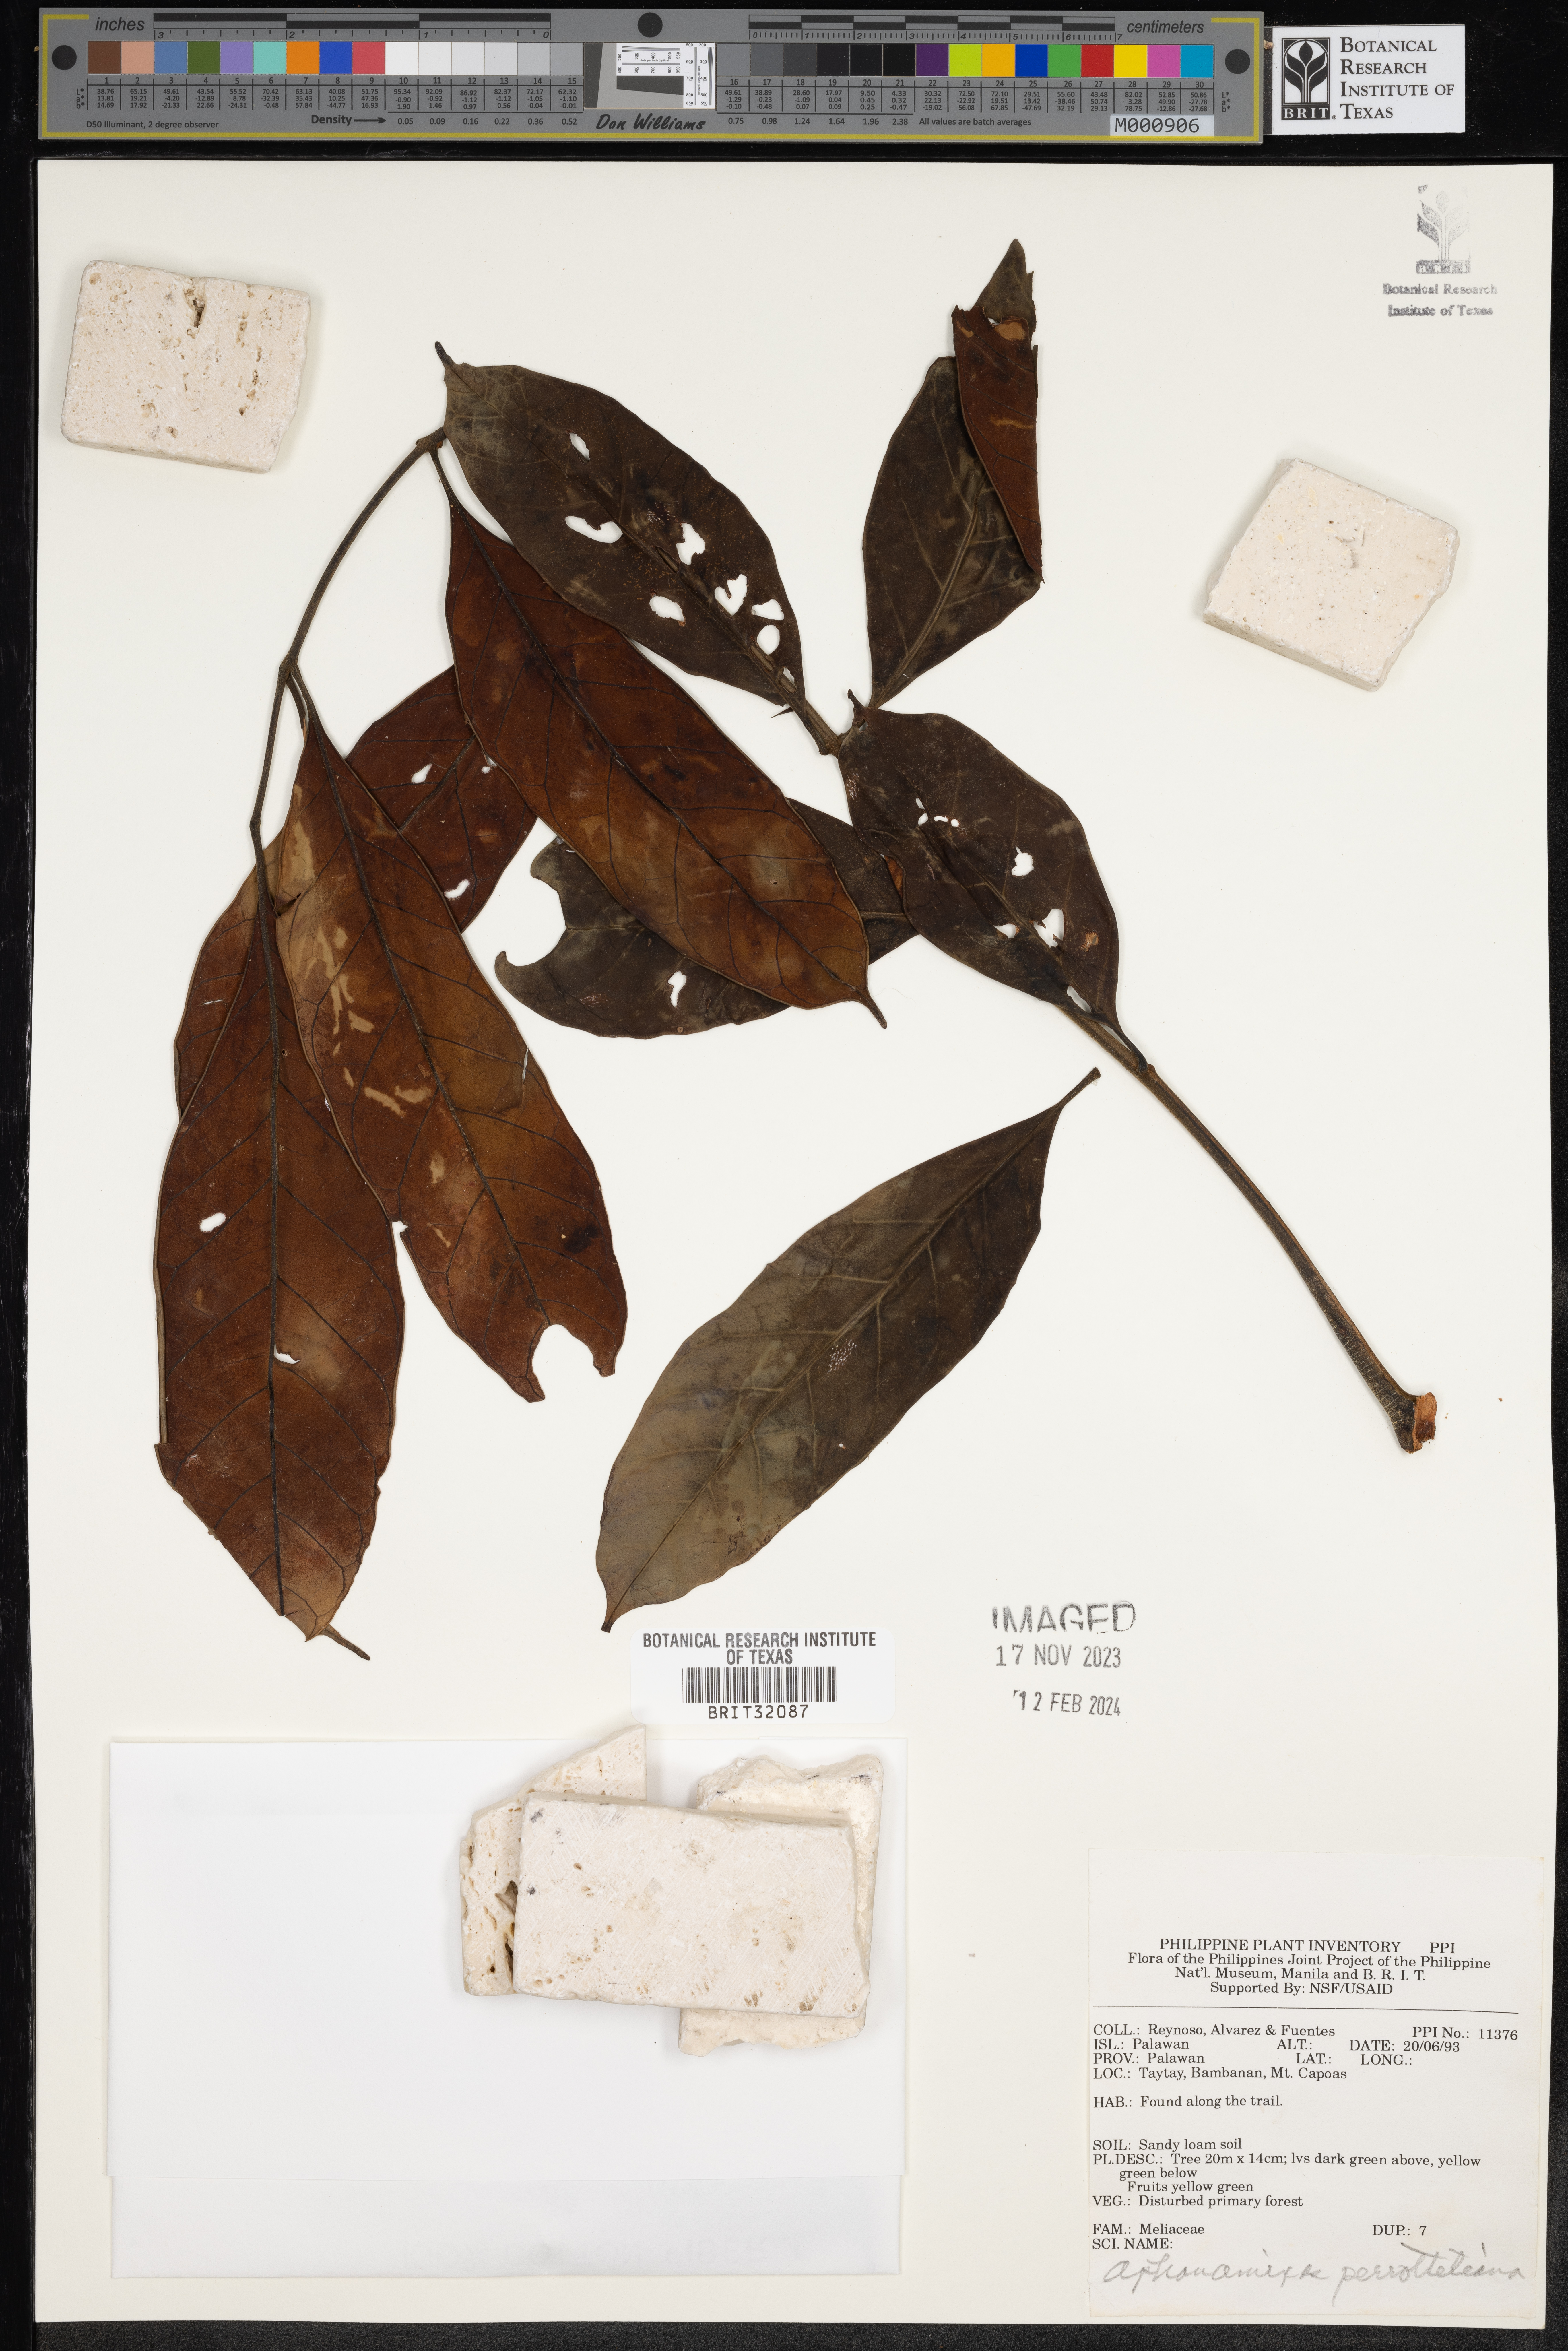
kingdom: Plantae
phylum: Tracheophyta
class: Magnoliopsida
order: Sapindales
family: Meliaceae
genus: Aphanamixis
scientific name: Aphanamixis polystachya
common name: Pithraj tree
